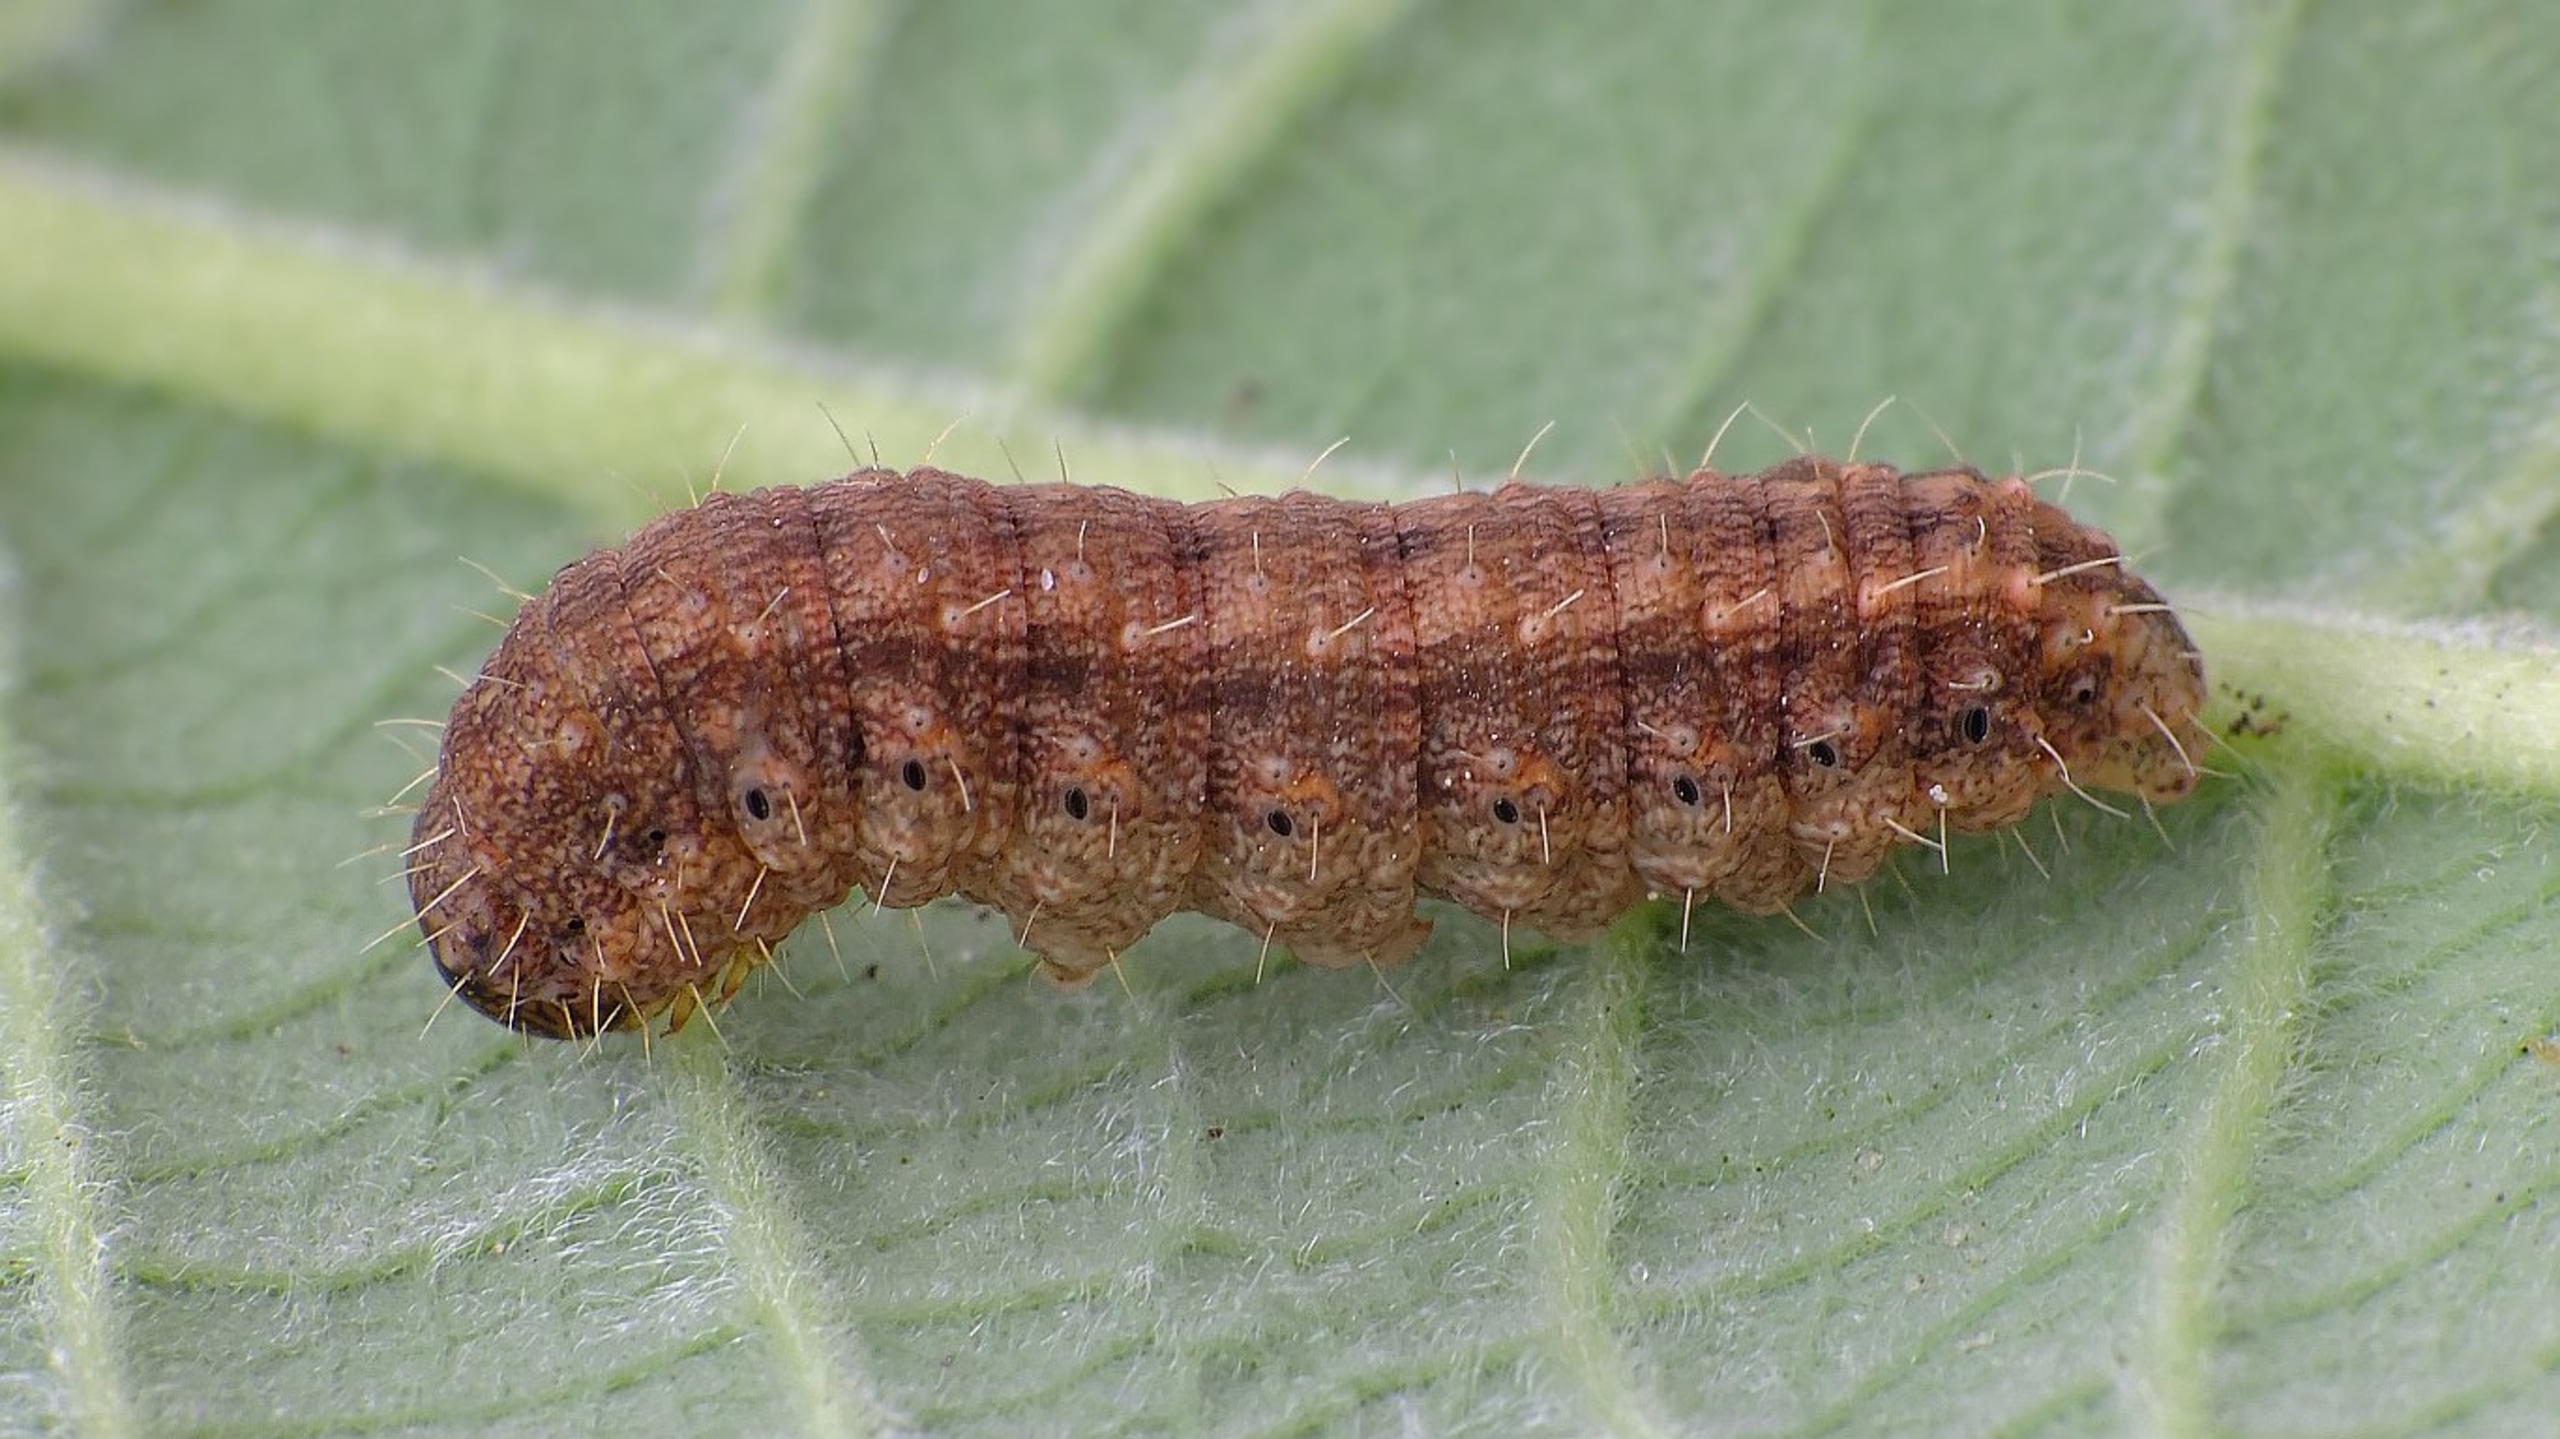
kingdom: Animalia
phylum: Arthropoda
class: Insecta
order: Lepidoptera
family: Noctuidae
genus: Hoplodrina
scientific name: Hoplodrina ambigua
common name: Tvivlsom mus
